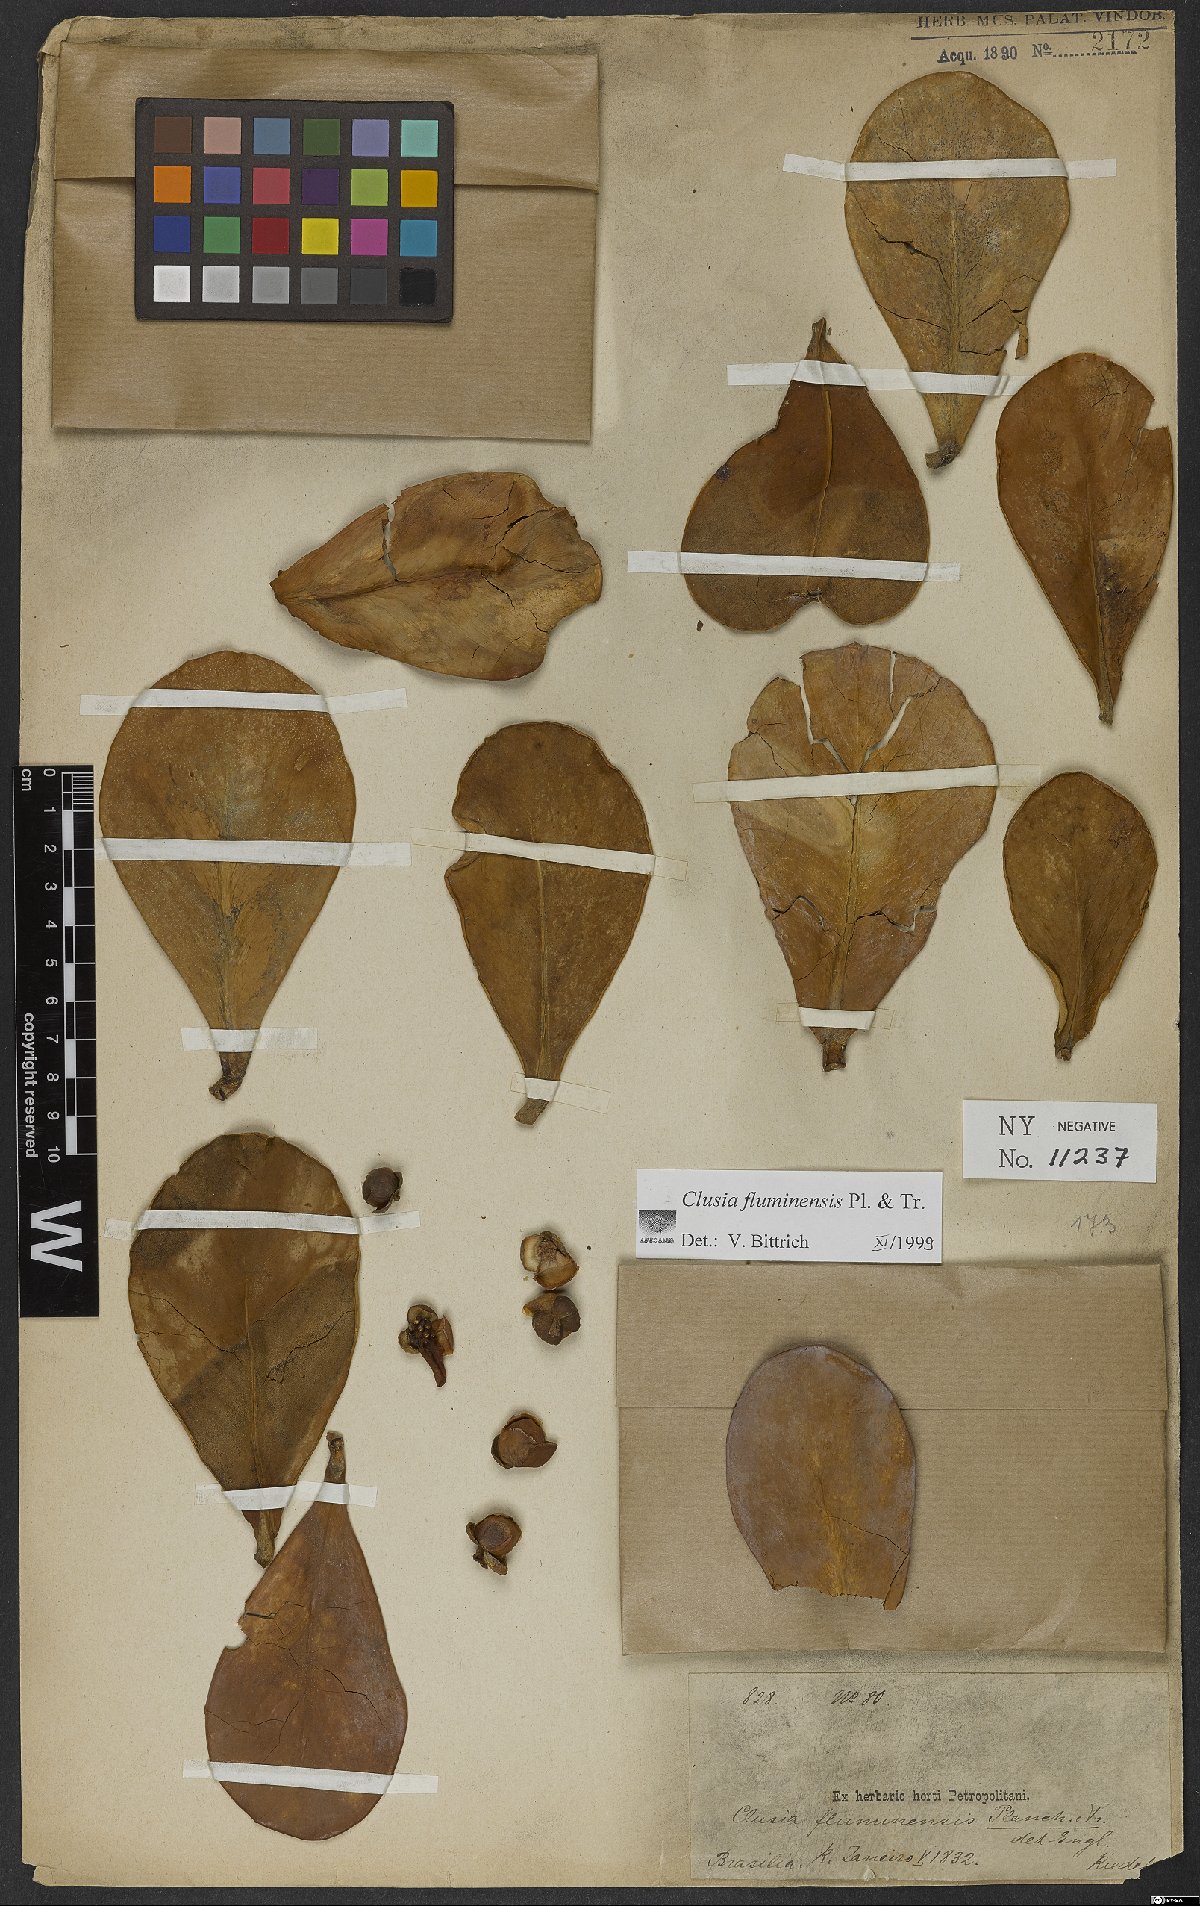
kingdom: Plantae
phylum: Tracheophyta
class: Magnoliopsida
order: Malpighiales
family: Clusiaceae
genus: Clusia
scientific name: Clusia fluminensis
